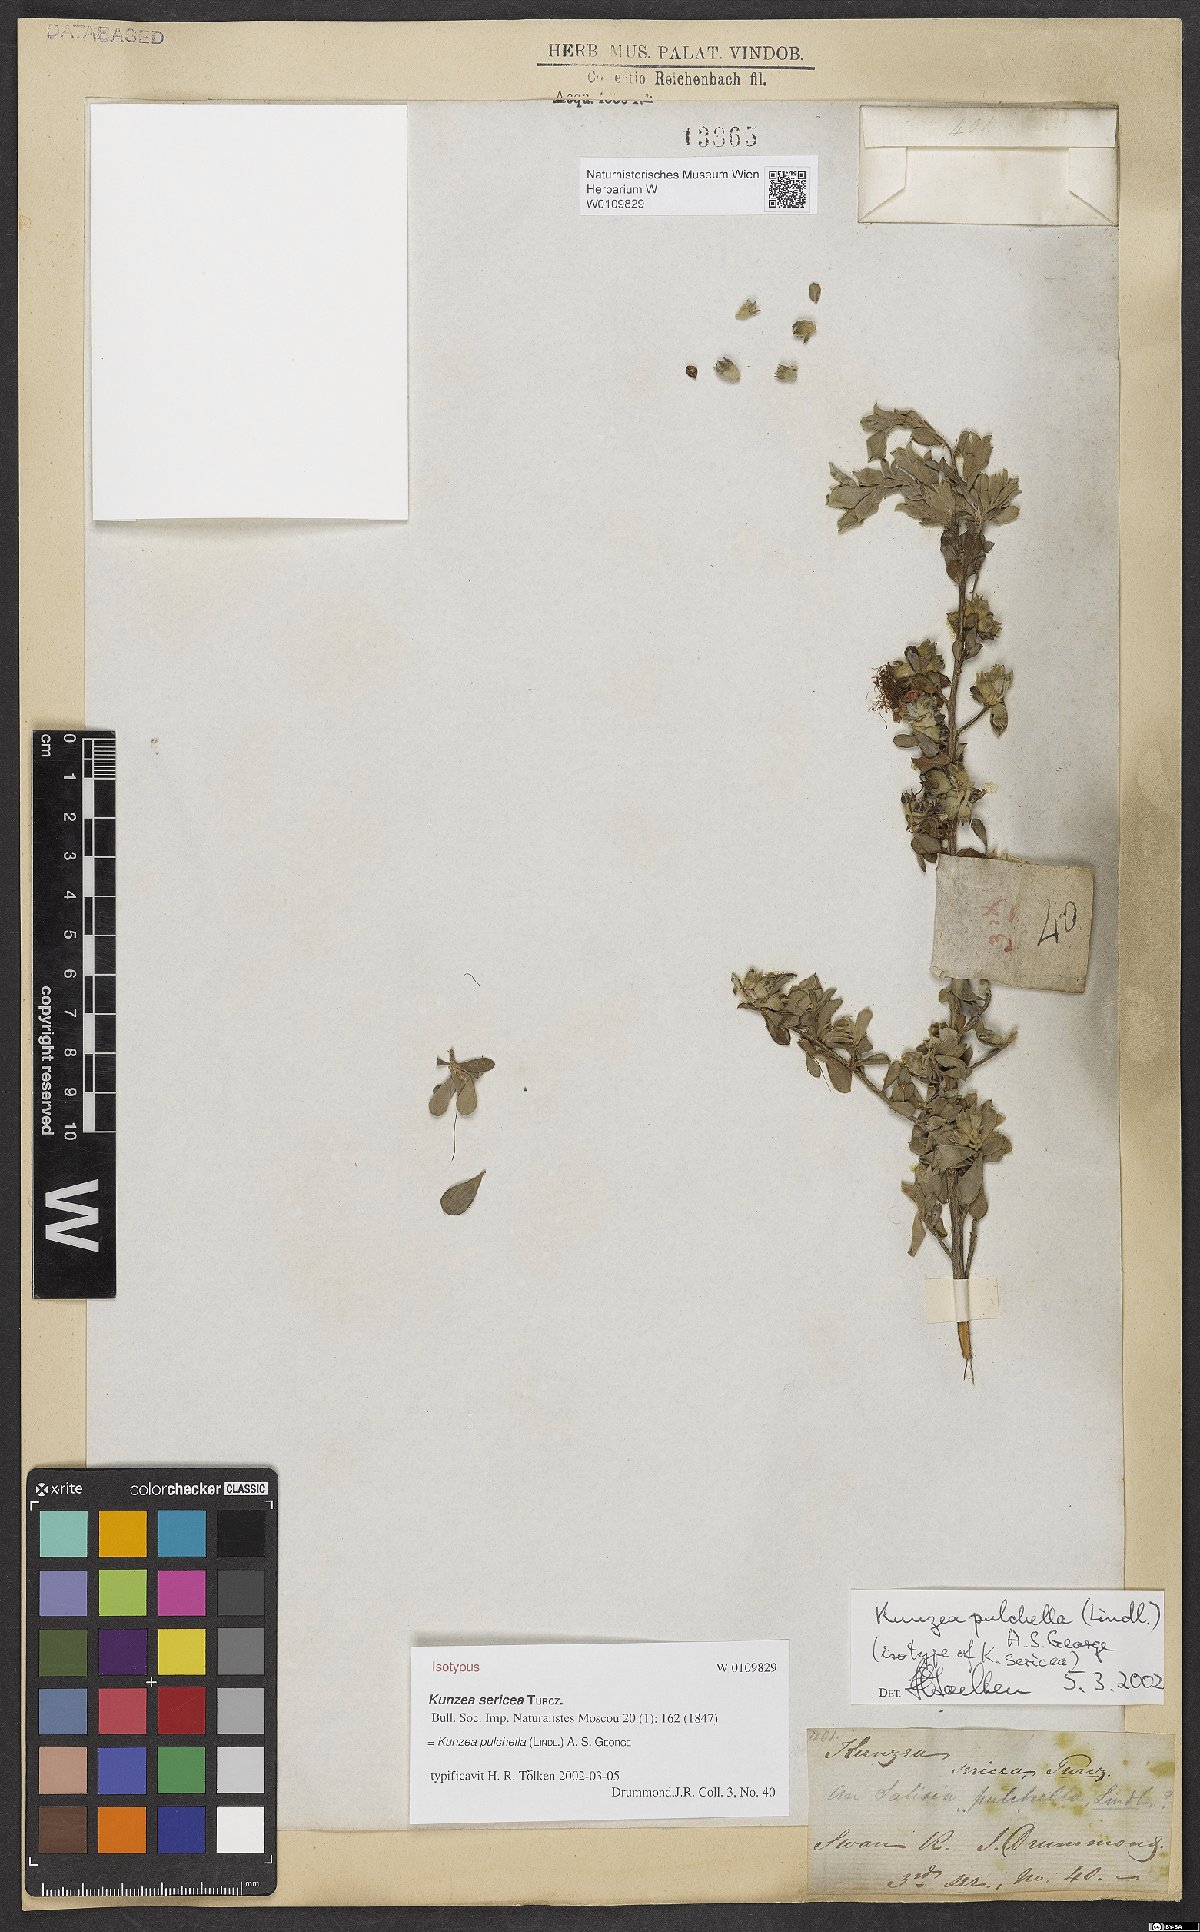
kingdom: Plantae
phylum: Tracheophyta
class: Magnoliopsida
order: Myrtales
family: Myrtaceae
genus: Kunzea
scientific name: Kunzea pulchella
